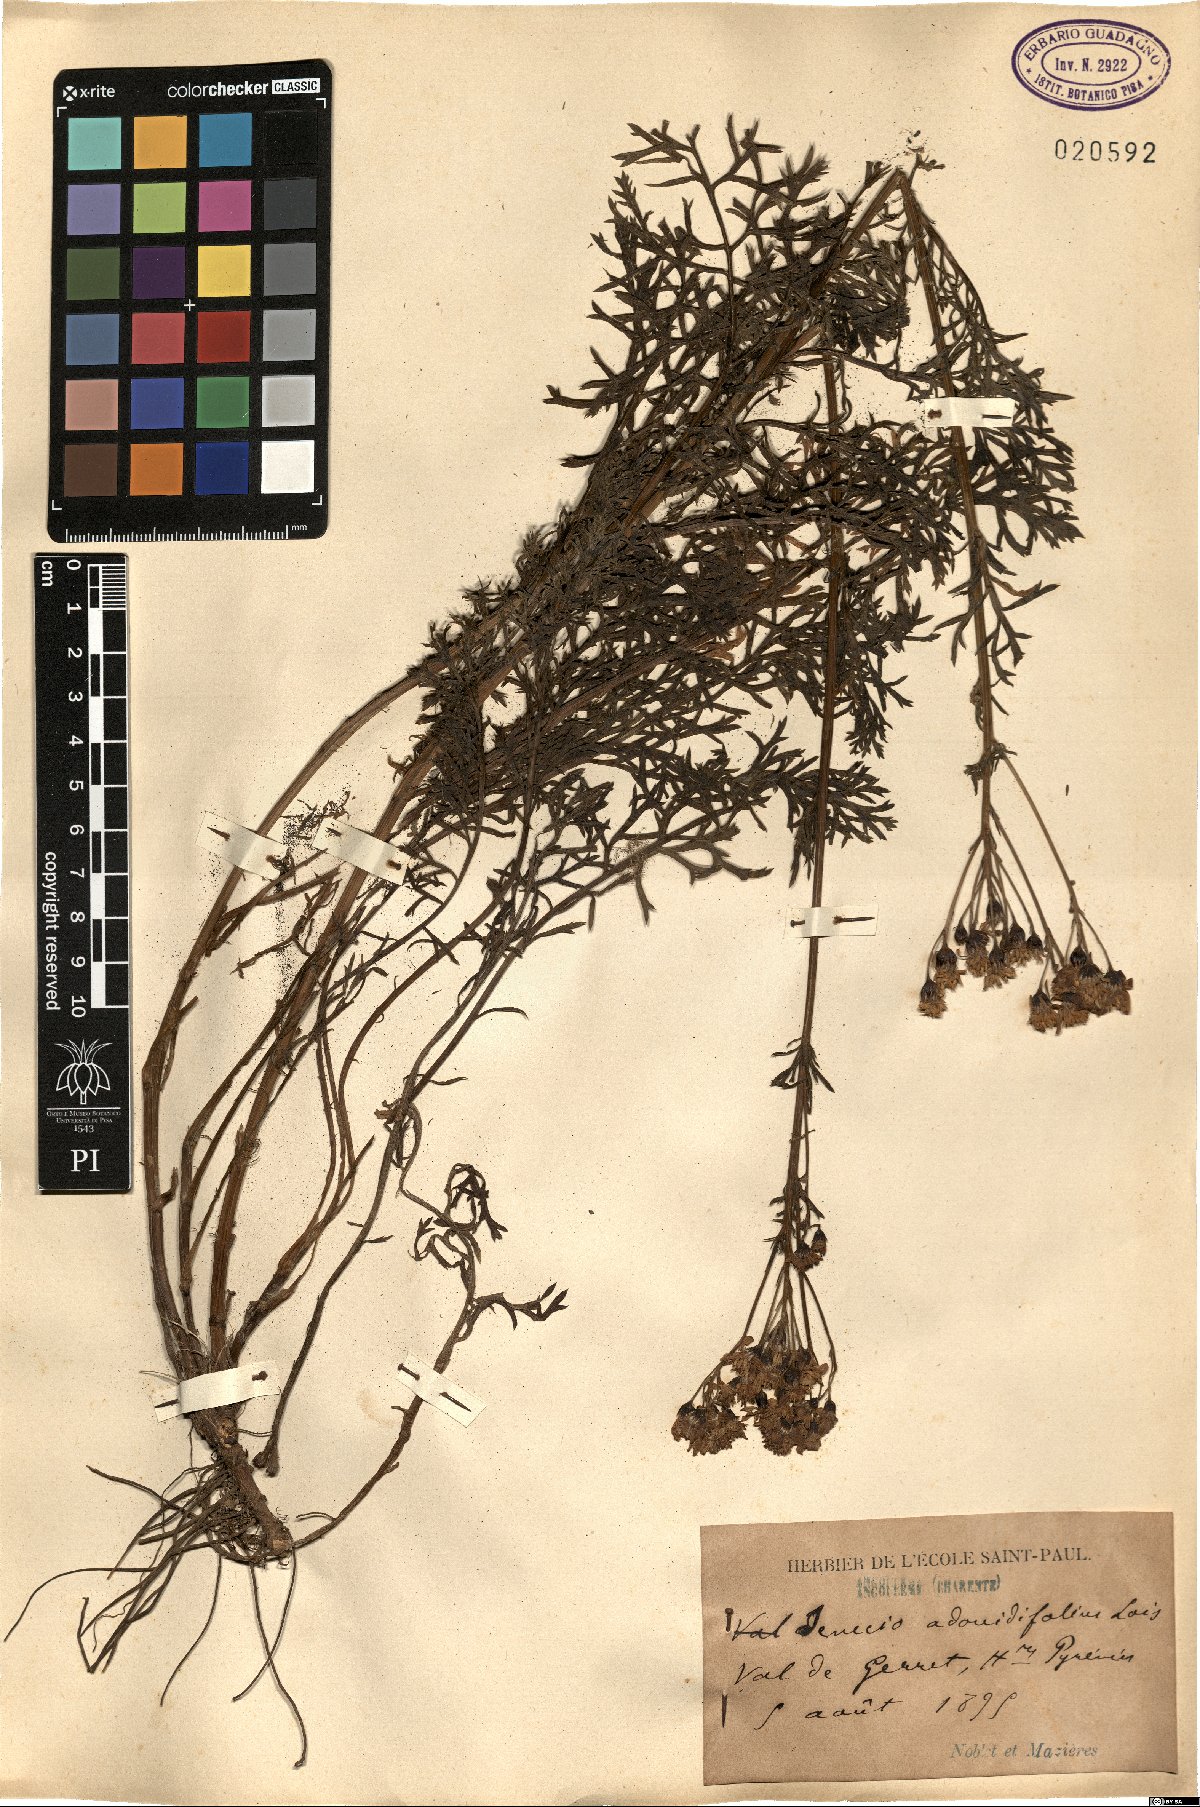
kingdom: Plantae
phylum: Tracheophyta
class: Magnoliopsida
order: Asterales
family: Asteraceae
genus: Jacobaea
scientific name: Jacobaea adonidifolia
